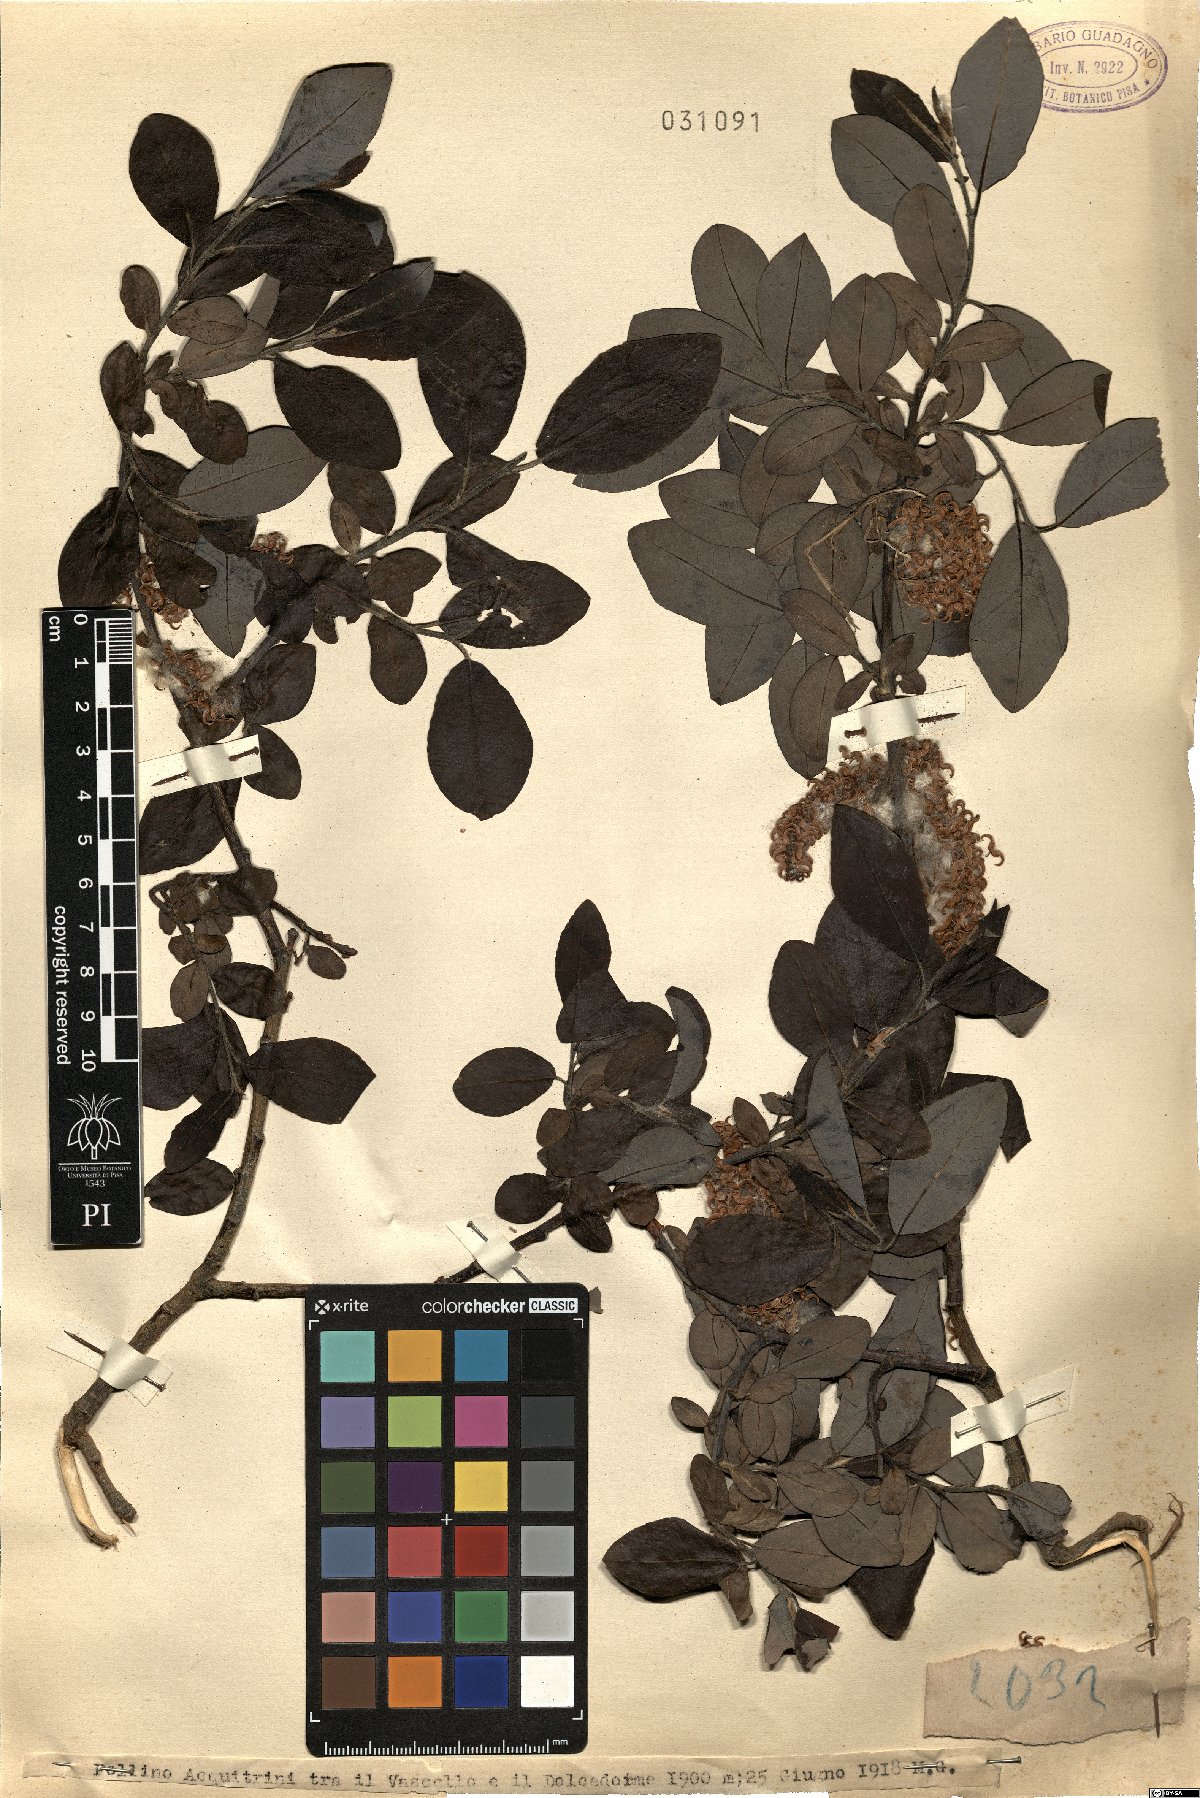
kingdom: Plantae
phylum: Tracheophyta
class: Magnoliopsida
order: Malpighiales
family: Salicaceae
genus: Salix
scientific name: Salix
